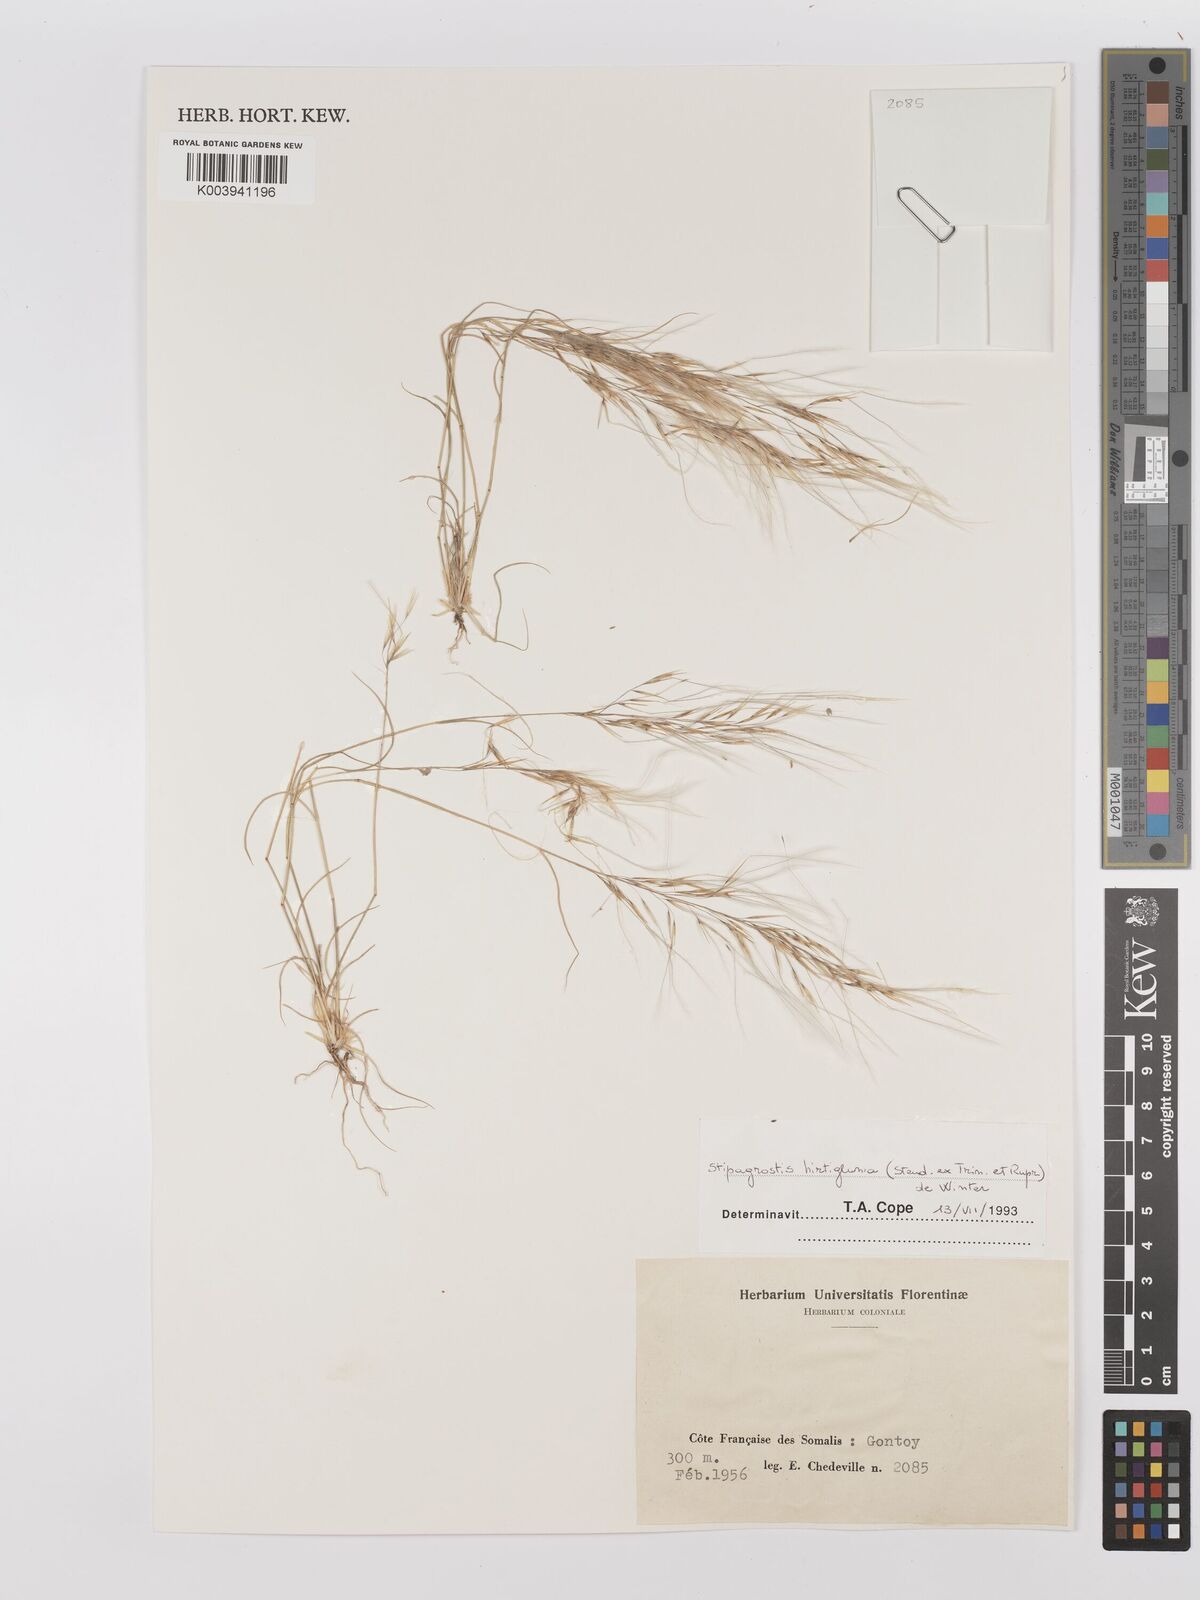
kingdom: Plantae
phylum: Tracheophyta
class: Liliopsida
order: Poales
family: Poaceae
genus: Stipagrostis
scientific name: Stipagrostis hirtigluma
